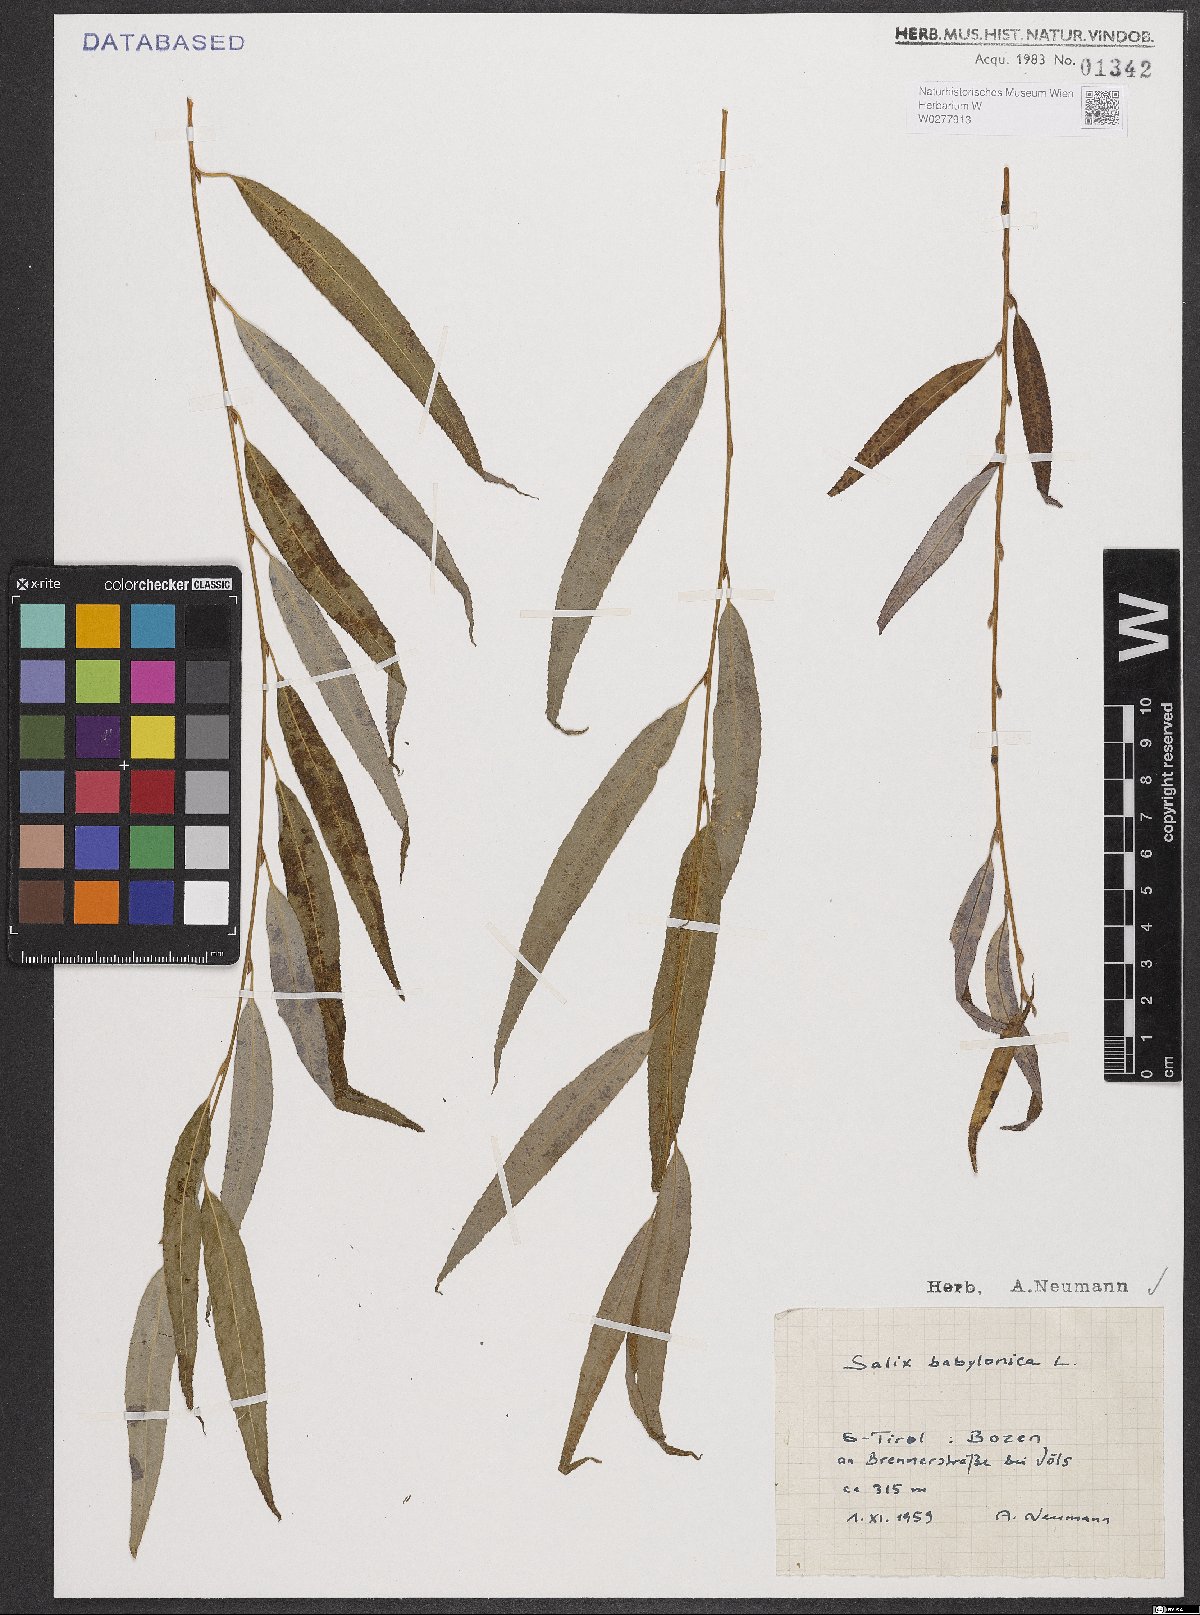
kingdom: Plantae
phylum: Tracheophyta
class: Magnoliopsida
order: Malpighiales
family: Salicaceae
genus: Salix
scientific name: Salix babylonica
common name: Weeping willow
